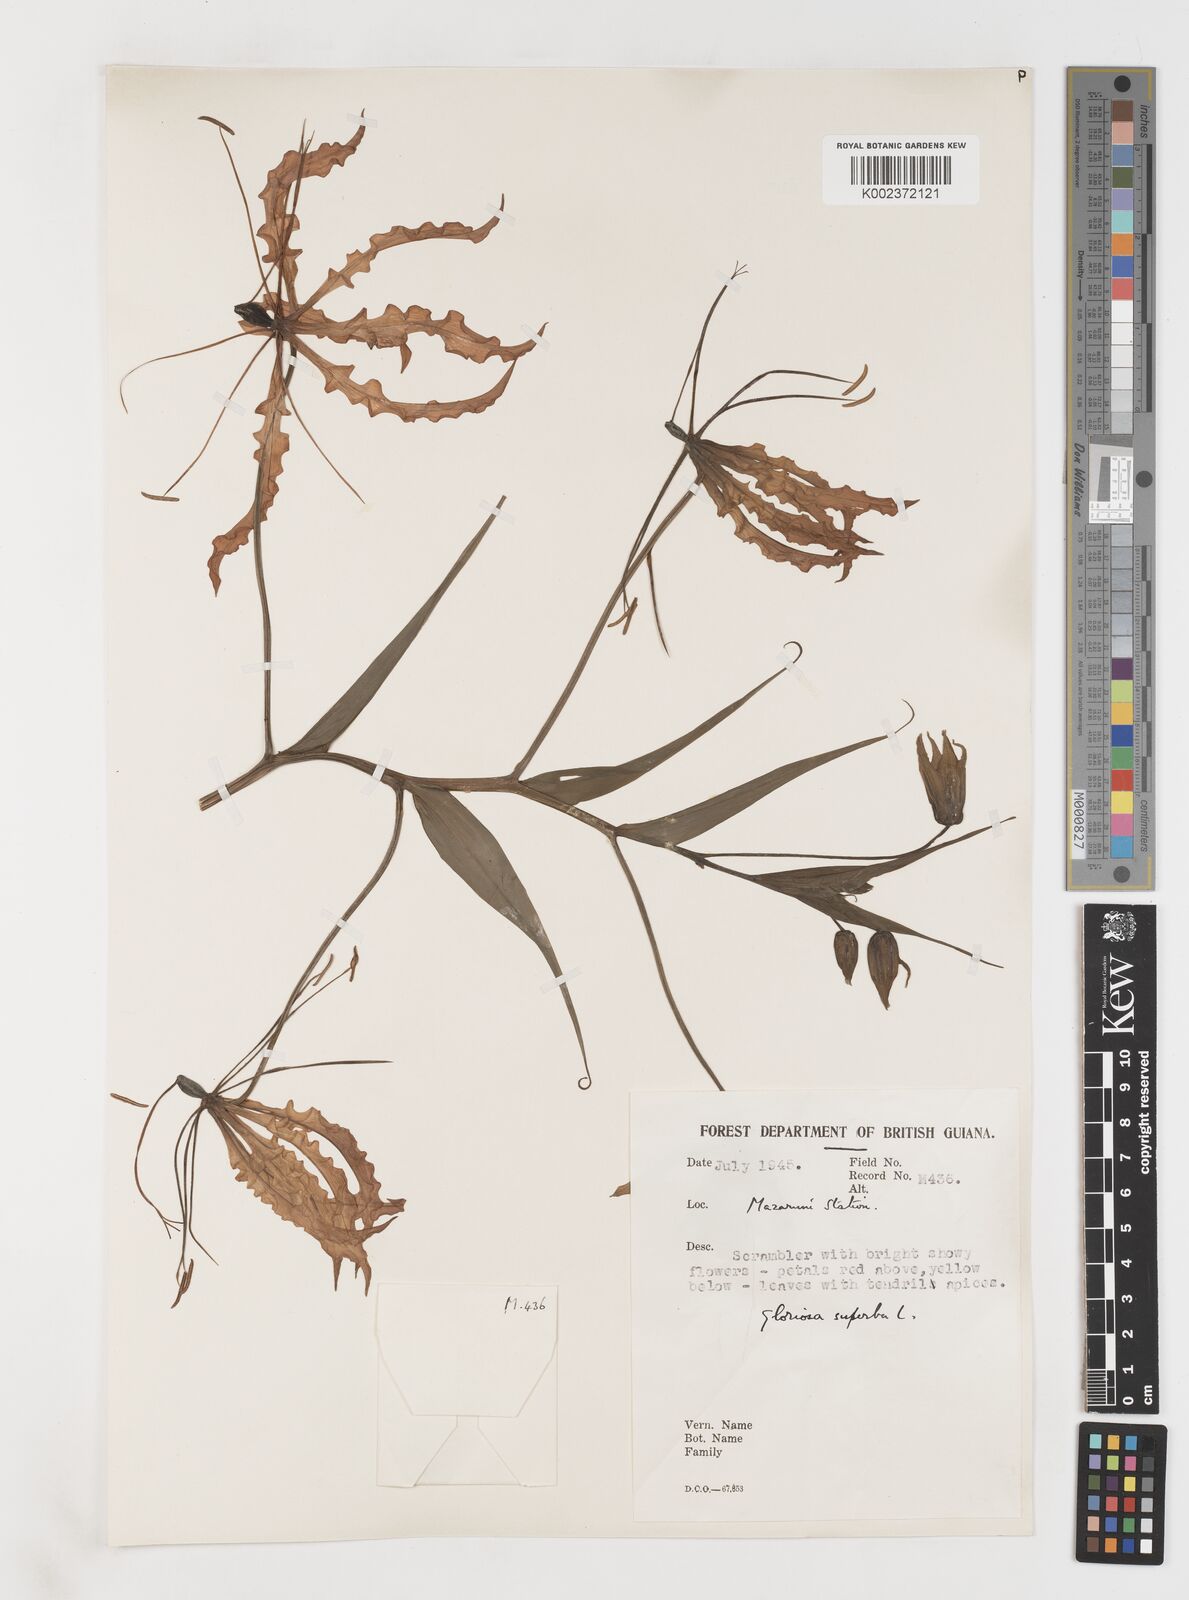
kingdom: Plantae
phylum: Tracheophyta
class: Liliopsida
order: Liliales
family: Colchicaceae
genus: Gloriosa
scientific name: Gloriosa superba
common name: Flame lily
